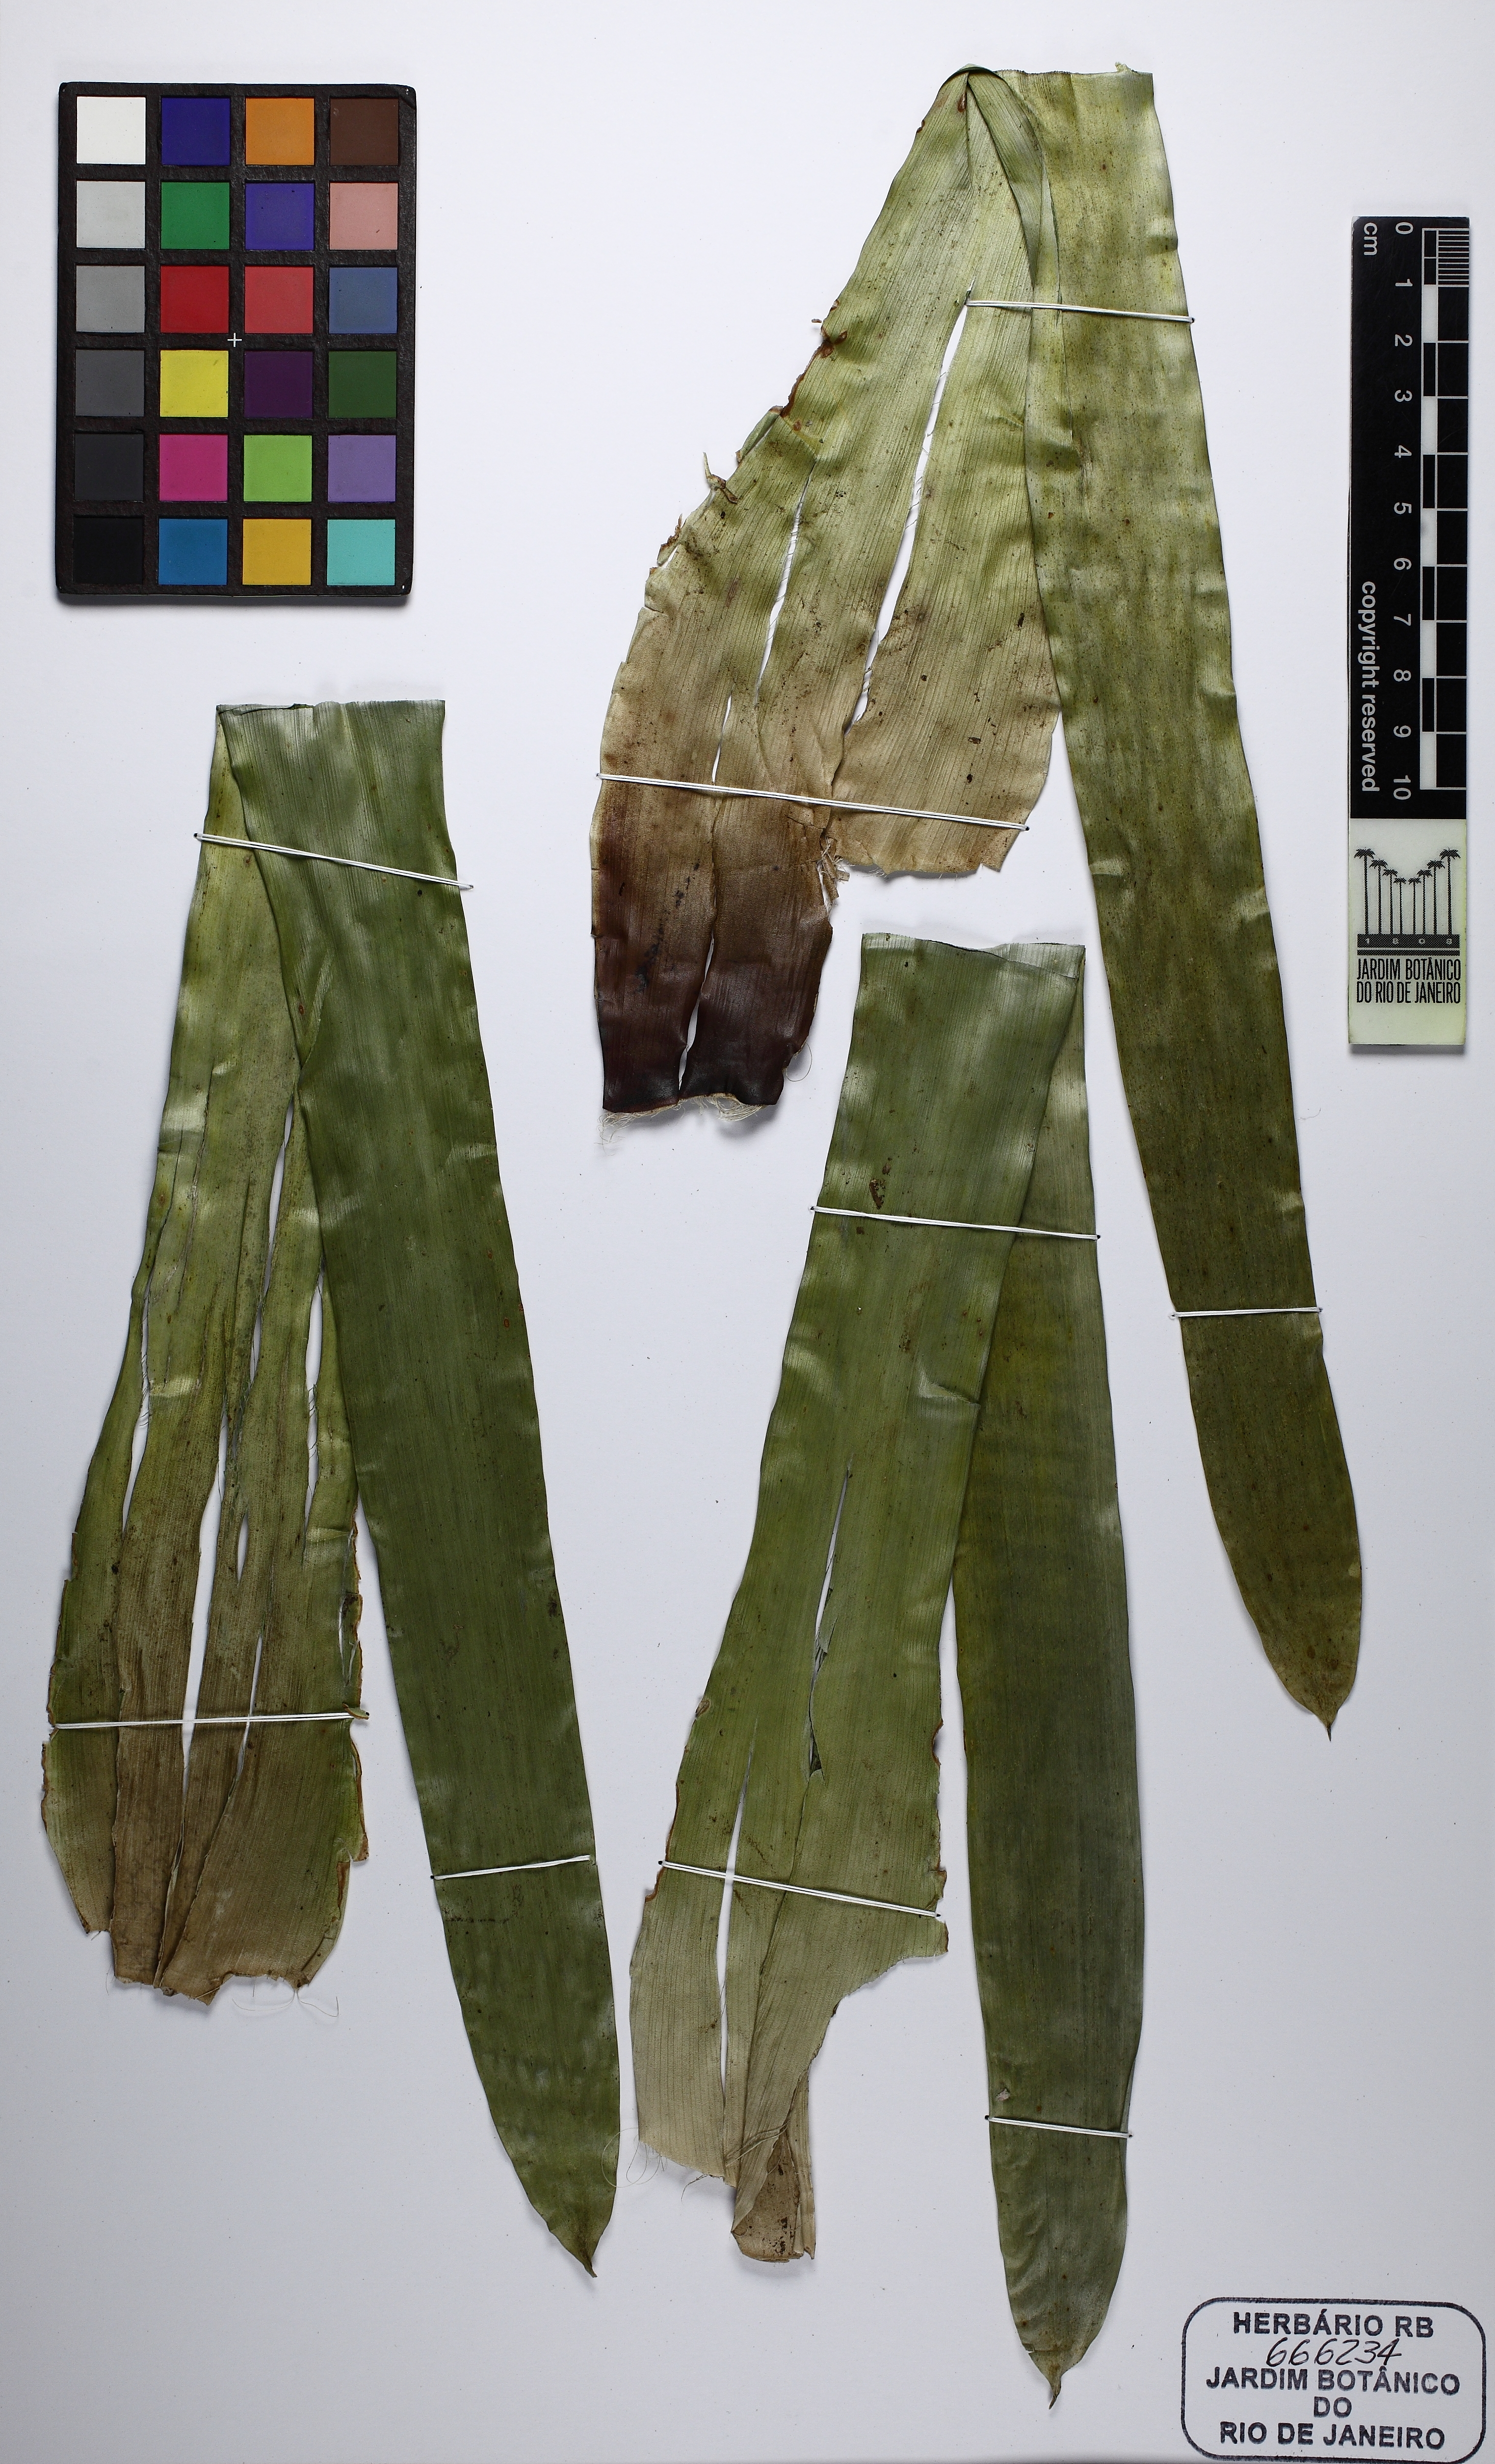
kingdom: Plantae
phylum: Tracheophyta
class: Liliopsida
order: Poales
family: Bromeliaceae
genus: Vriesea
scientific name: Vriesea longicaulis
